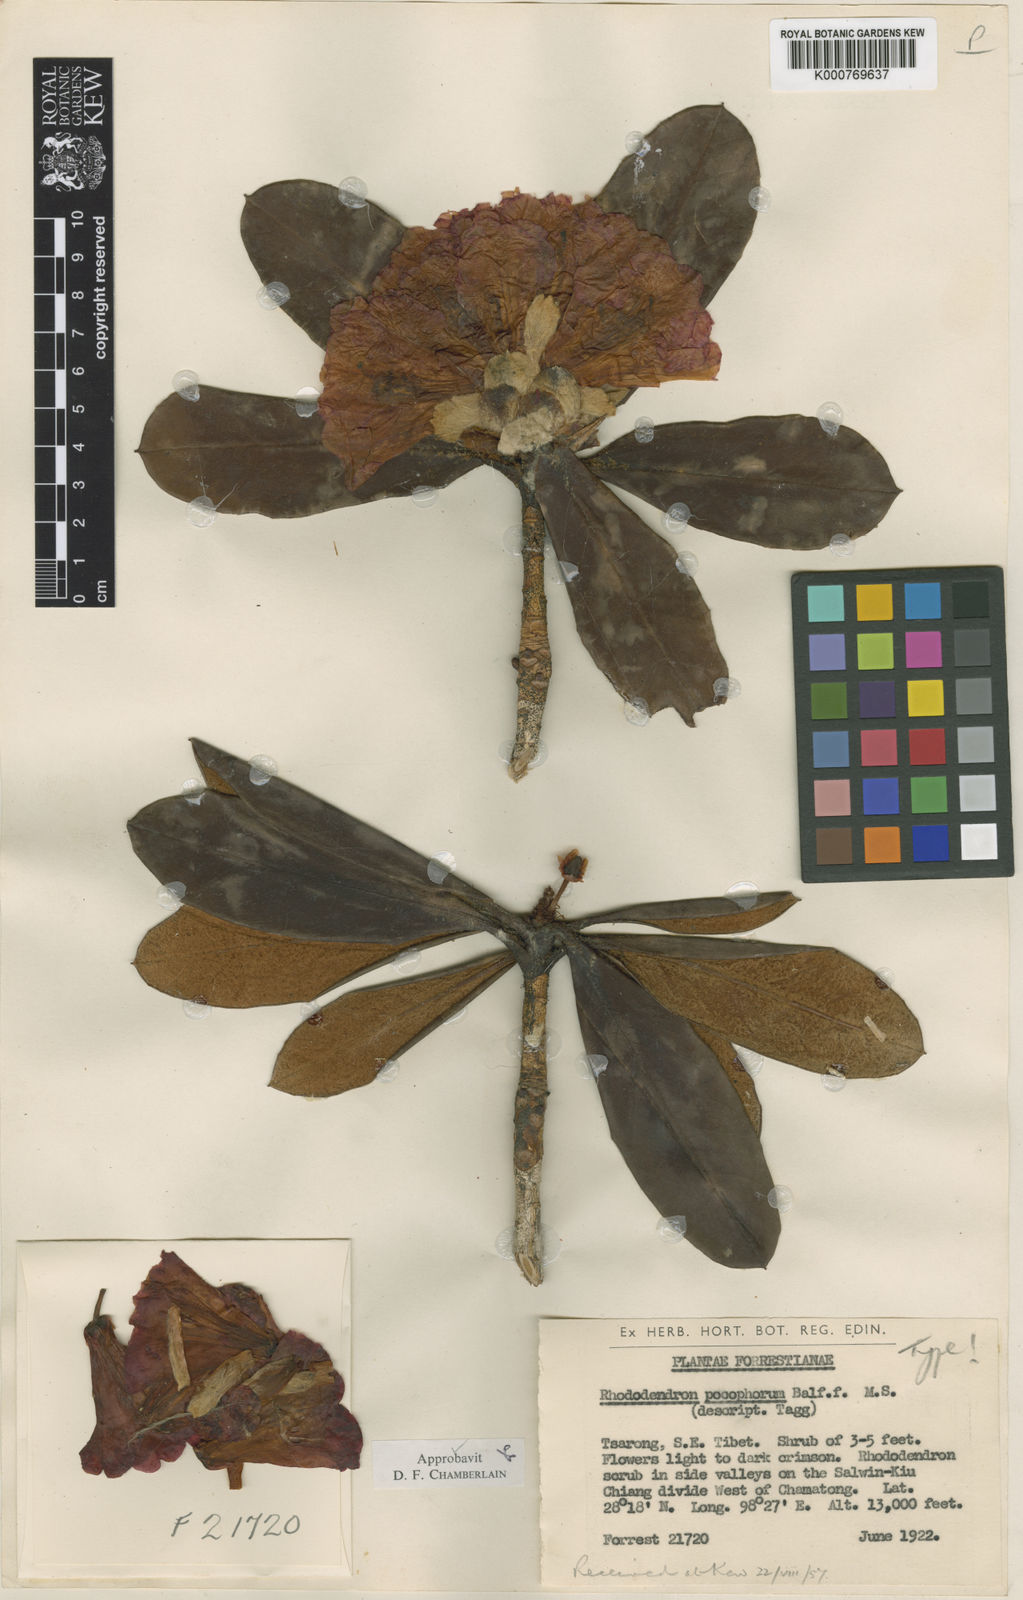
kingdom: Plantae
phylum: Tracheophyta
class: Magnoliopsida
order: Ericales
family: Ericaceae
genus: Rhododendron
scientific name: Rhododendron pocophorum
